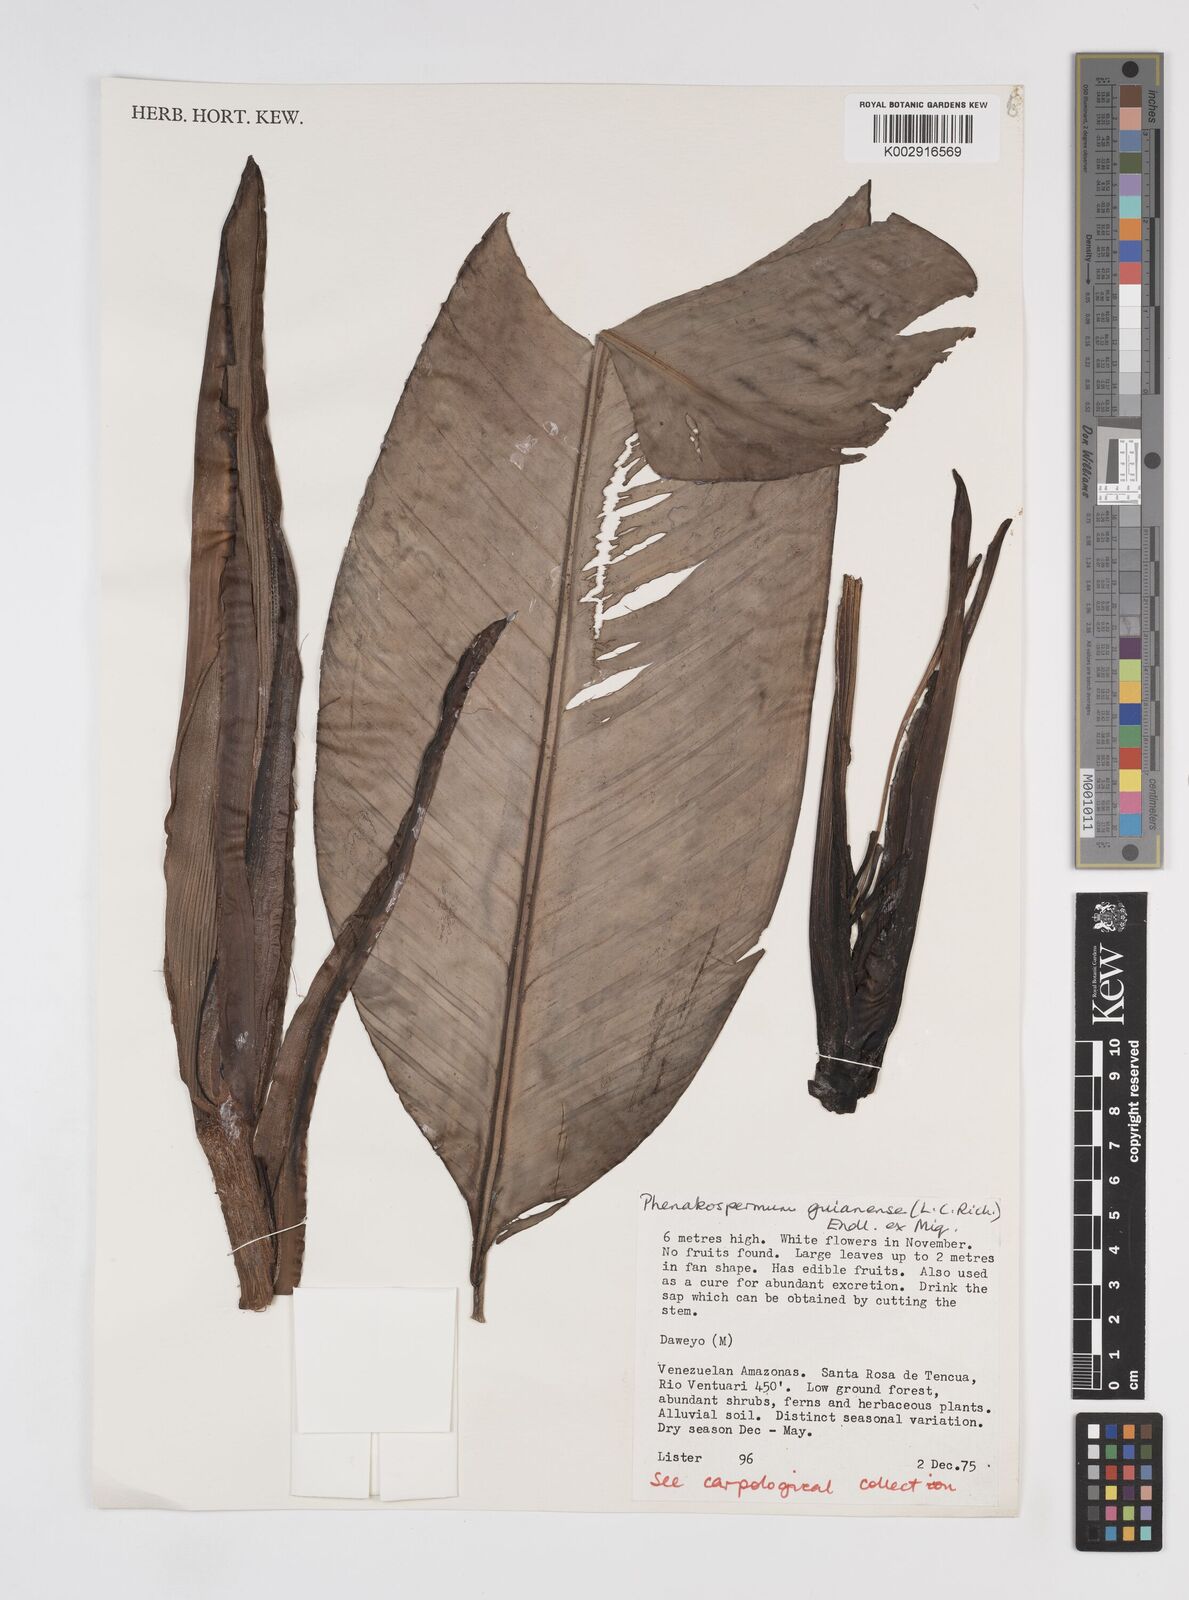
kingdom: Plantae
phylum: Tracheophyta
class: Liliopsida
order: Zingiberales
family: Strelitziaceae
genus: Phenakospermum
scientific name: Phenakospermum guyannense
